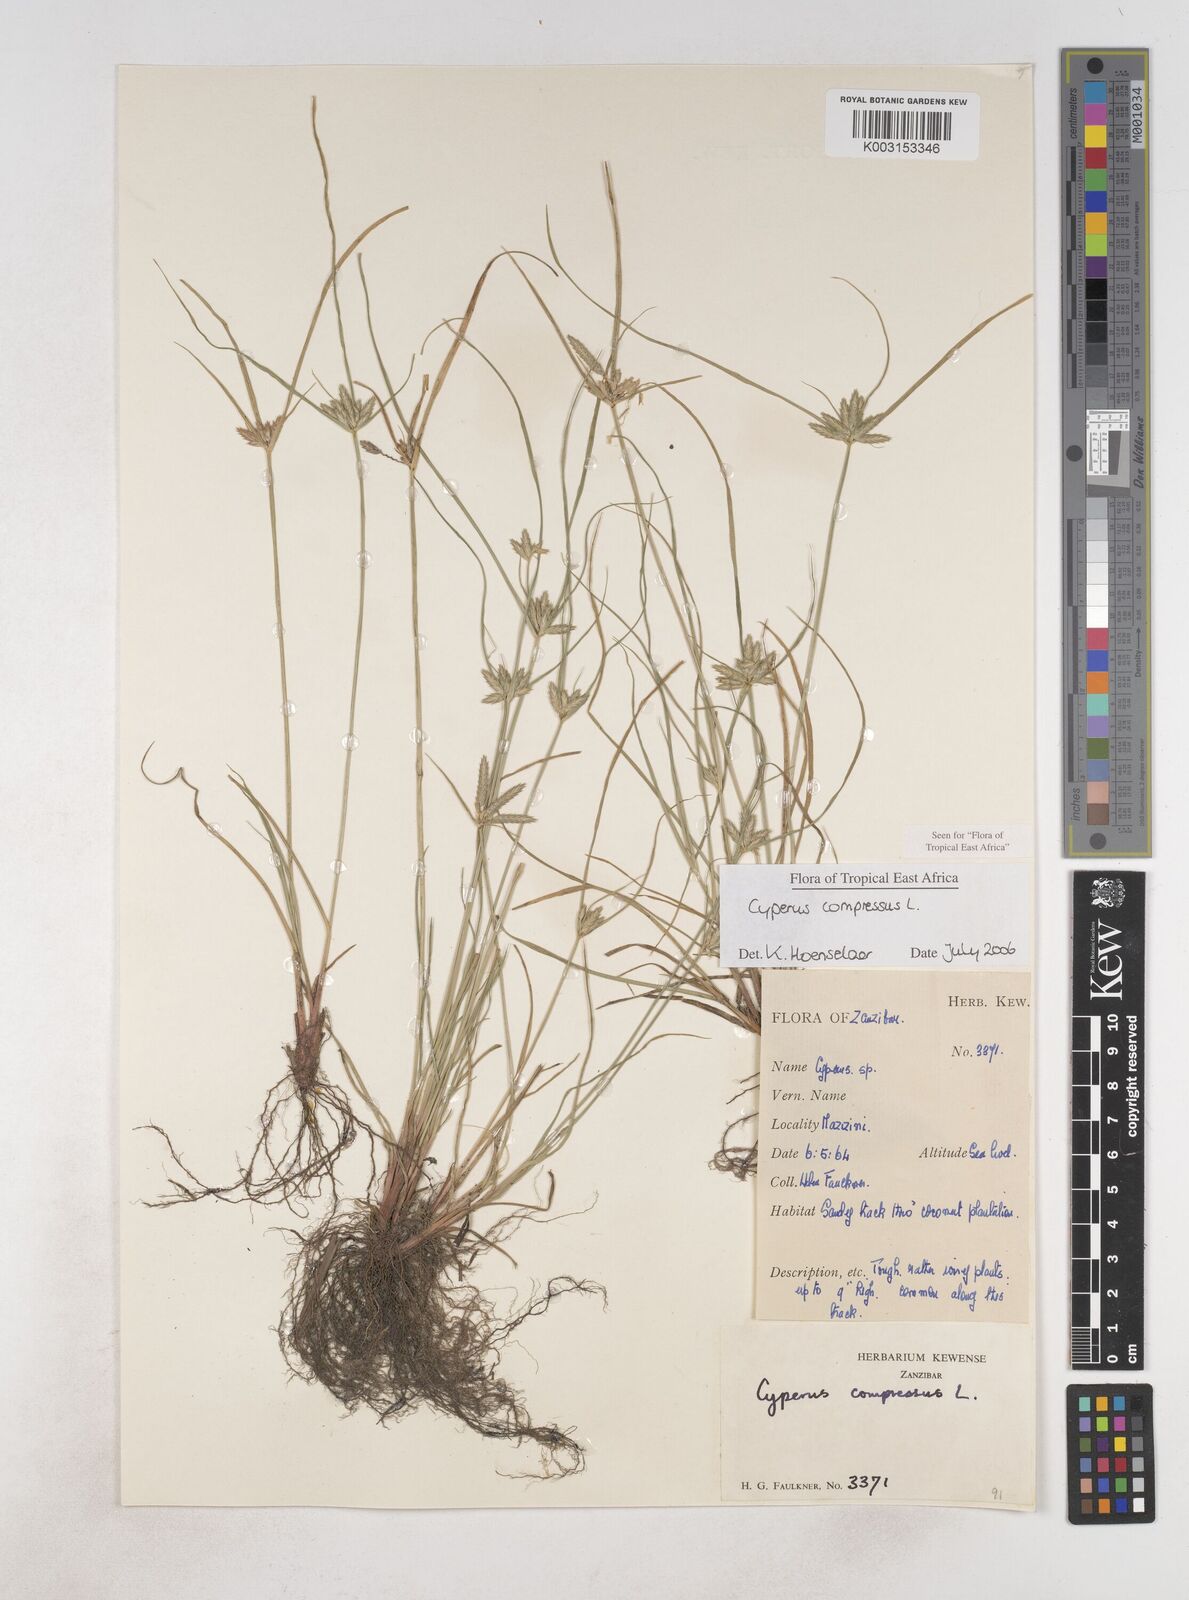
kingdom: Plantae
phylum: Tracheophyta
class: Liliopsida
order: Poales
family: Cyperaceae
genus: Cyperus
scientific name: Cyperus compressus
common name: Poorland flatsedge
